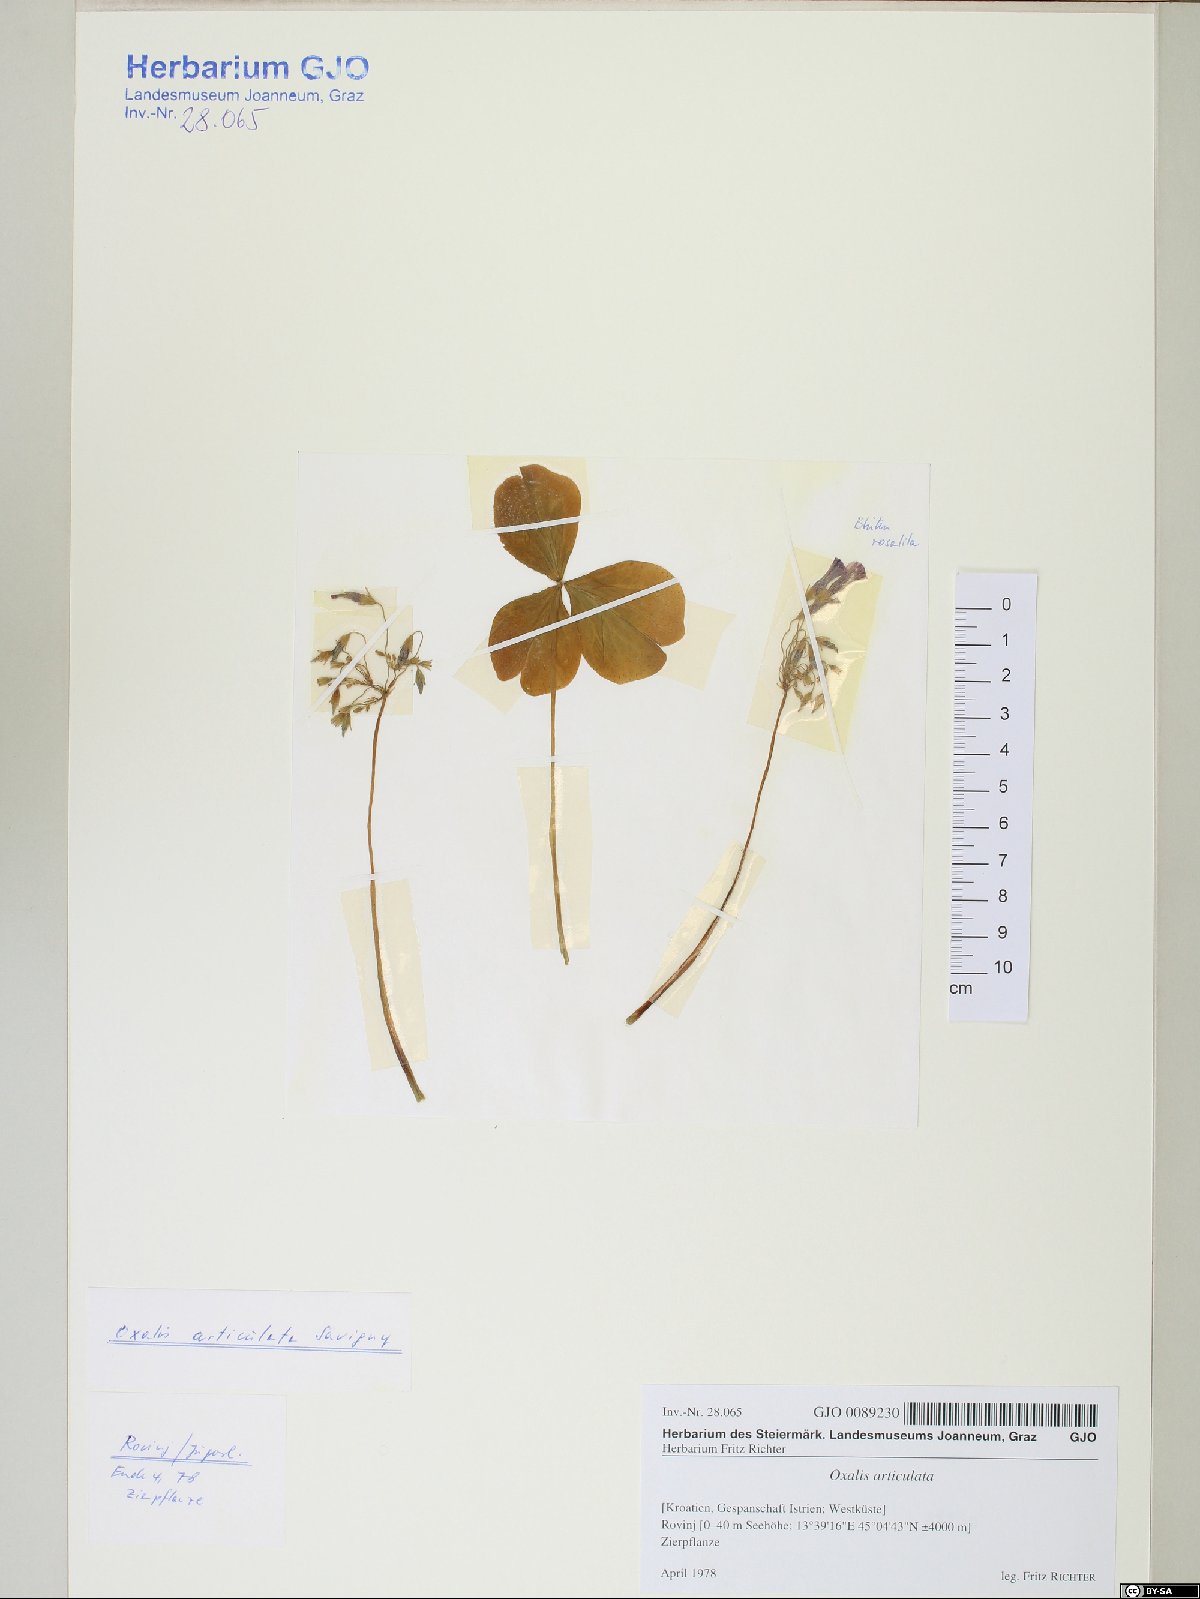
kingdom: Plantae
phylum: Tracheophyta
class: Magnoliopsida
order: Oxalidales
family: Oxalidaceae
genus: Oxalis
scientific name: Oxalis articulata
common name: Pink-sorrel
